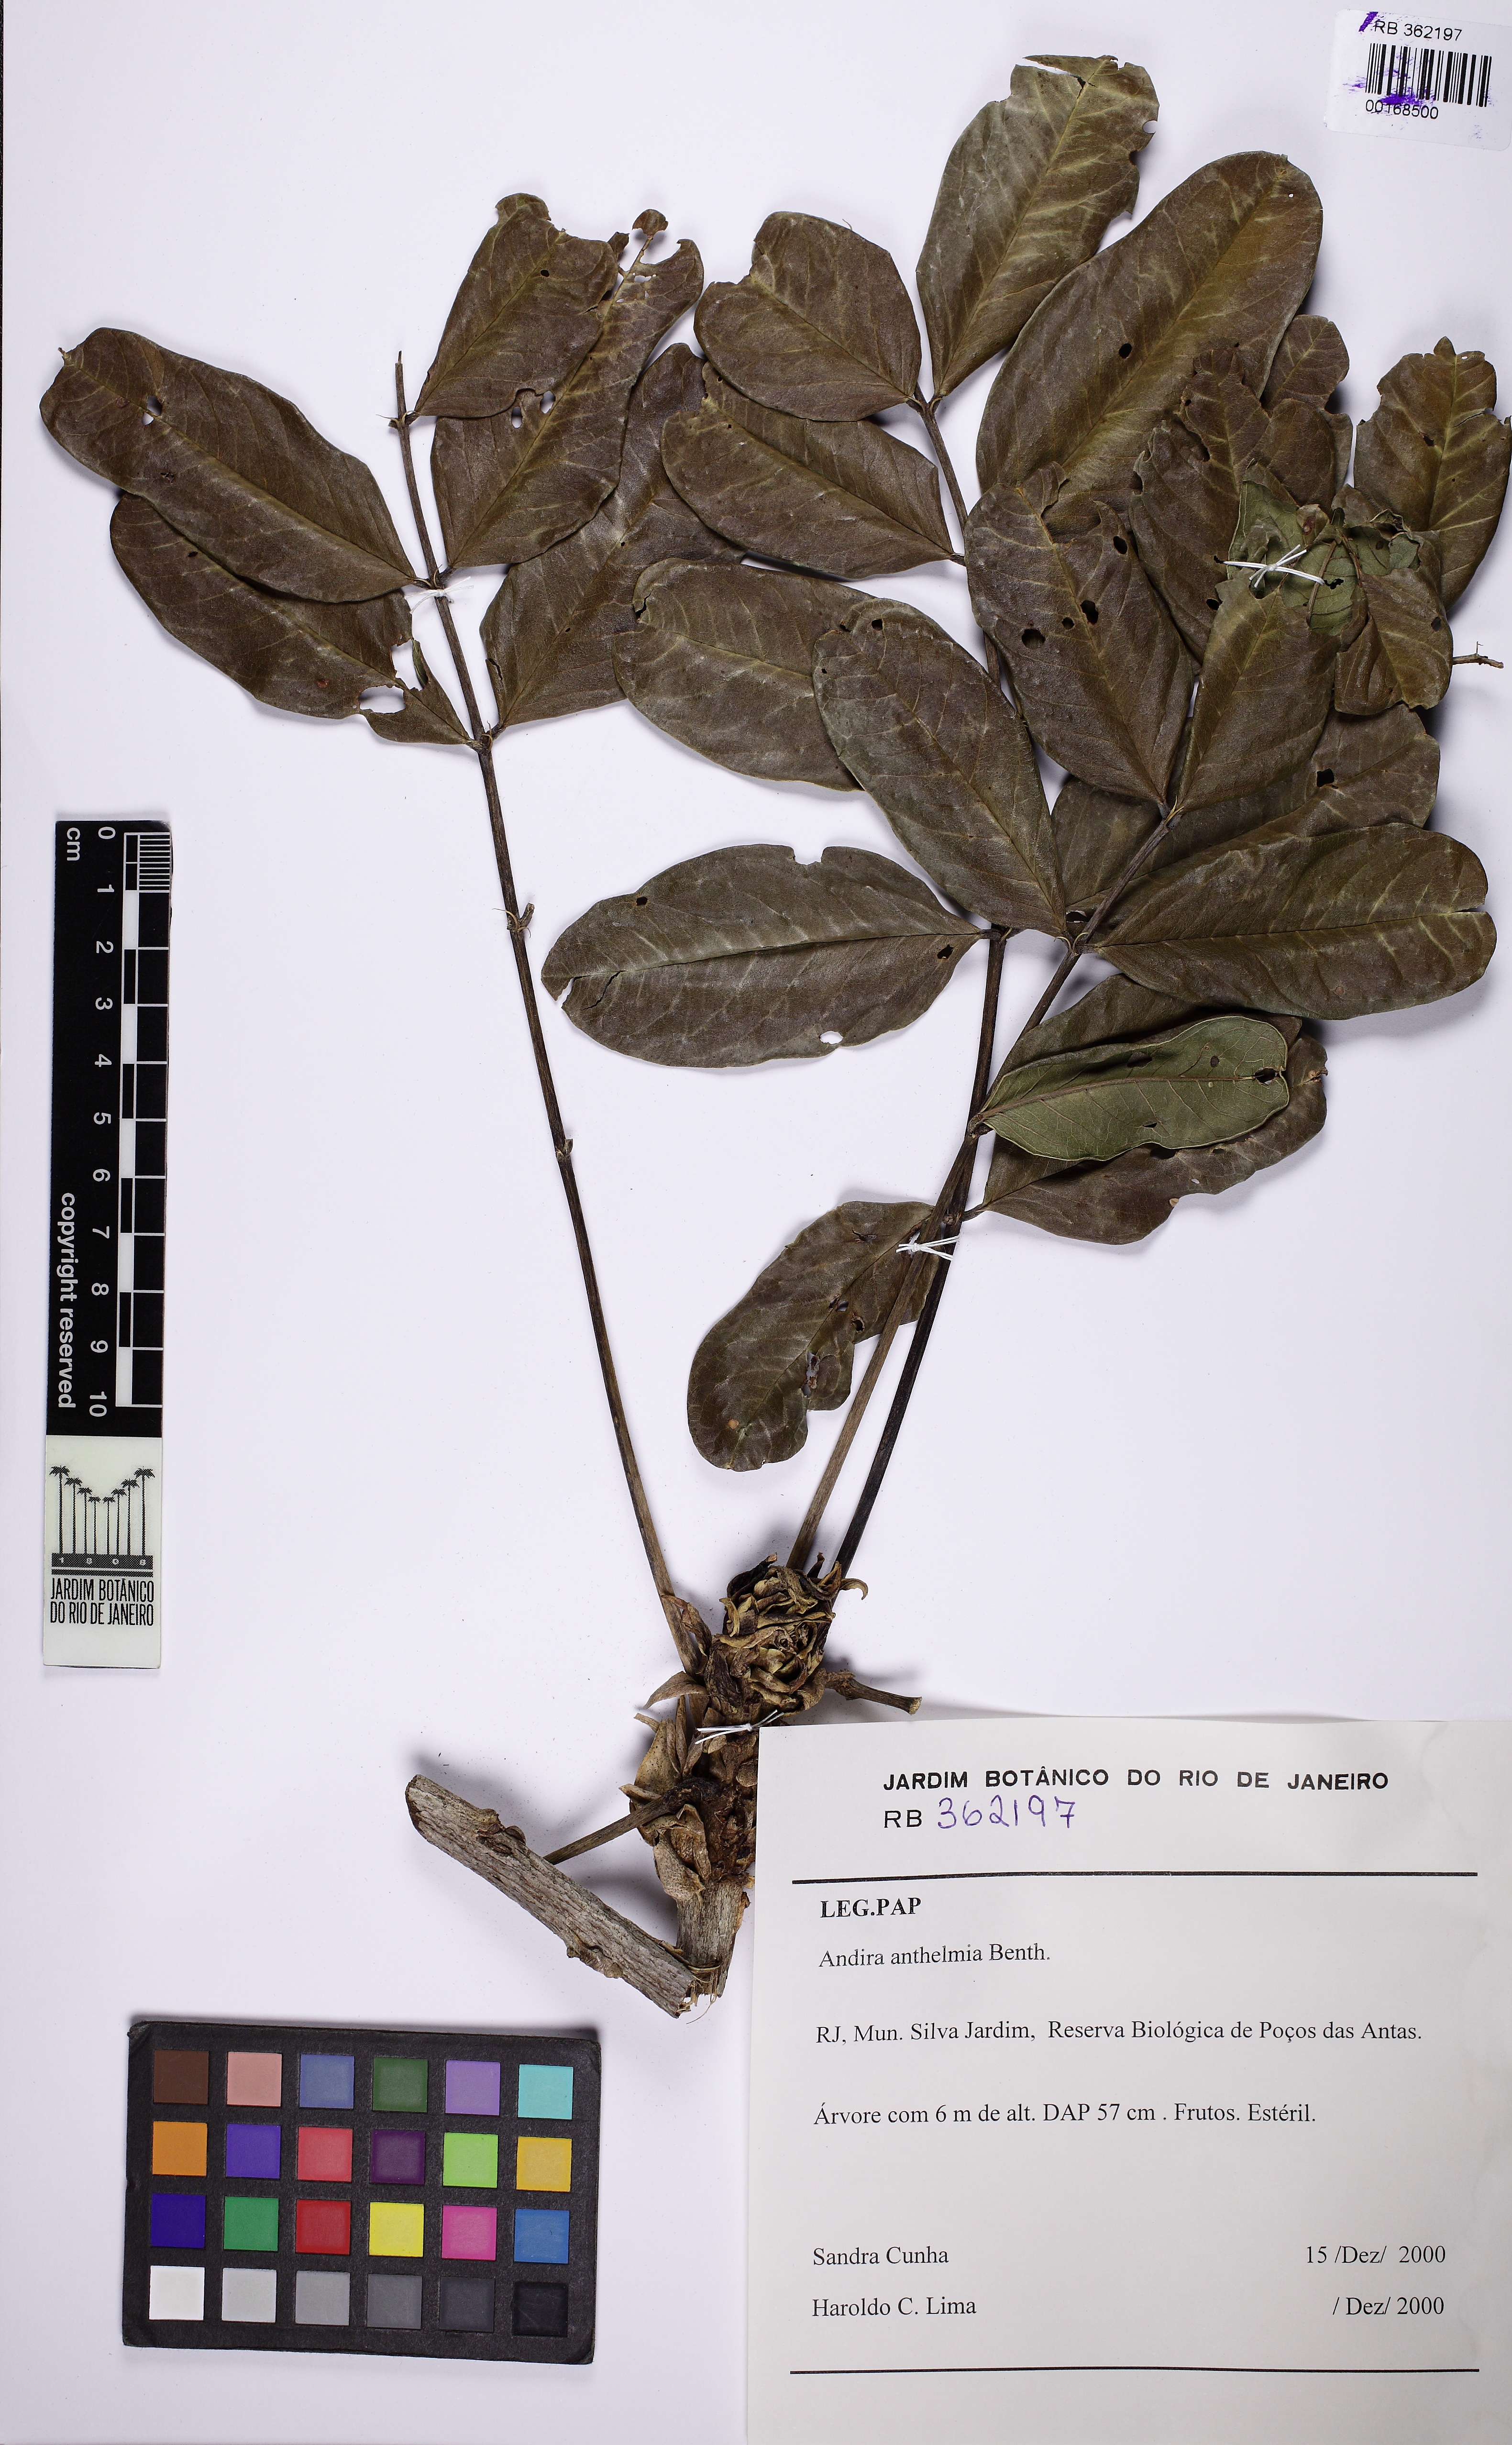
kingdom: Plantae
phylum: Tracheophyta
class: Magnoliopsida
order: Fabales
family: Fabaceae
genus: Andira
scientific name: Andira anthelmia
